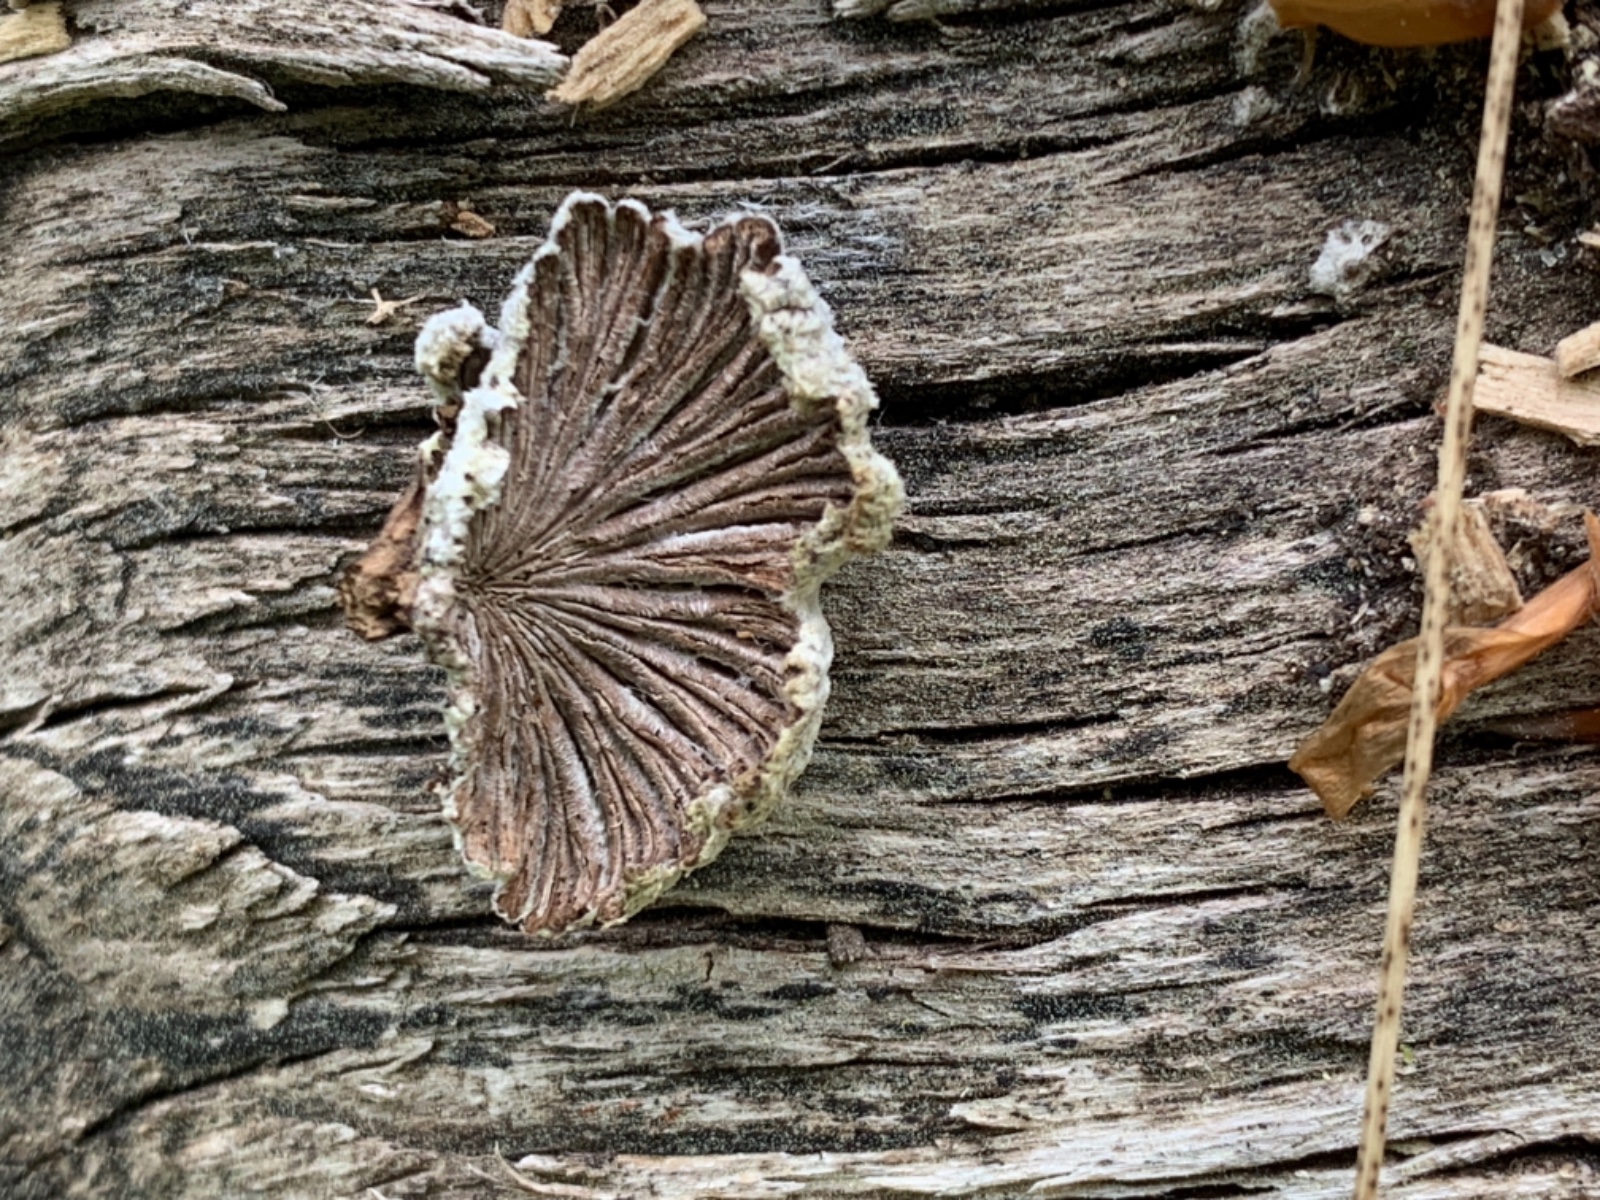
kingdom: Fungi
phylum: Basidiomycota
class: Agaricomycetes
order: Agaricales
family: Schizophyllaceae
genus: Schizophyllum
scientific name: Schizophyllum commune
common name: kløvblad
